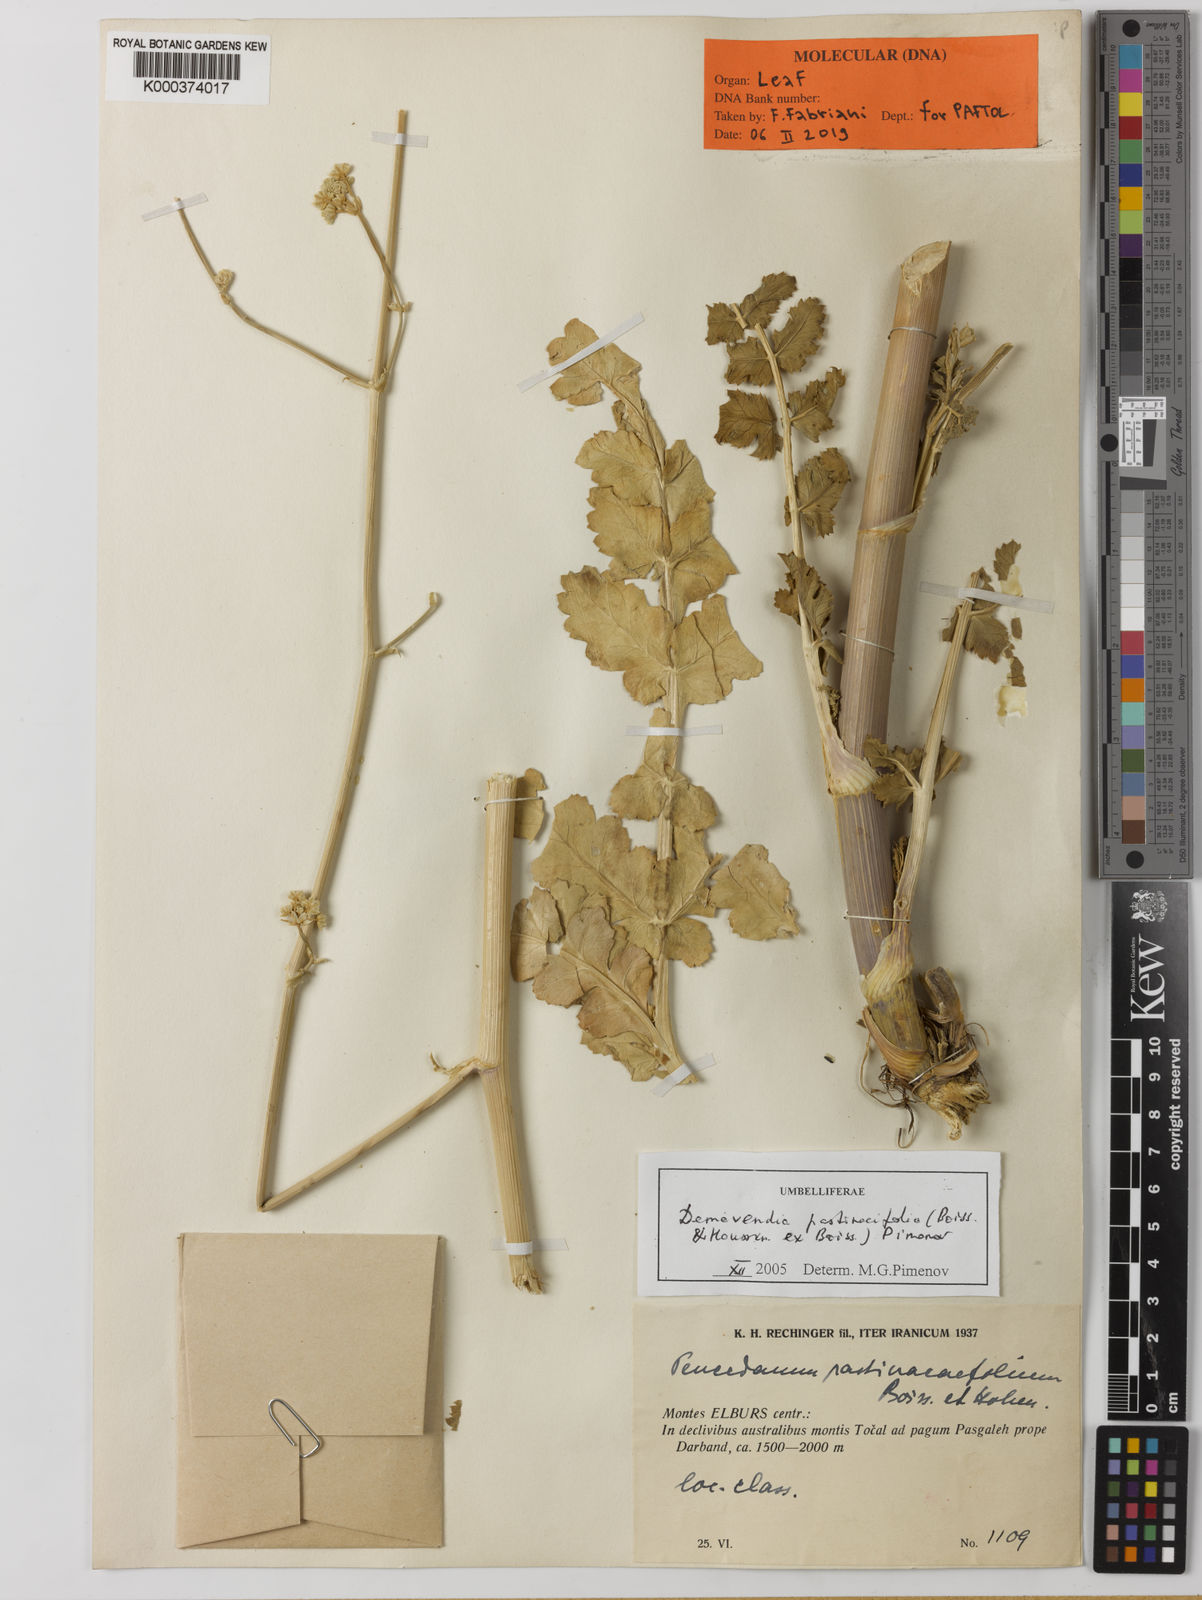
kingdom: Plantae
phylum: Tracheophyta
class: Magnoliopsida
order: Apiales
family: Apiaceae
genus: Zeravschania
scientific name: Zeravschania pastinacifolia
